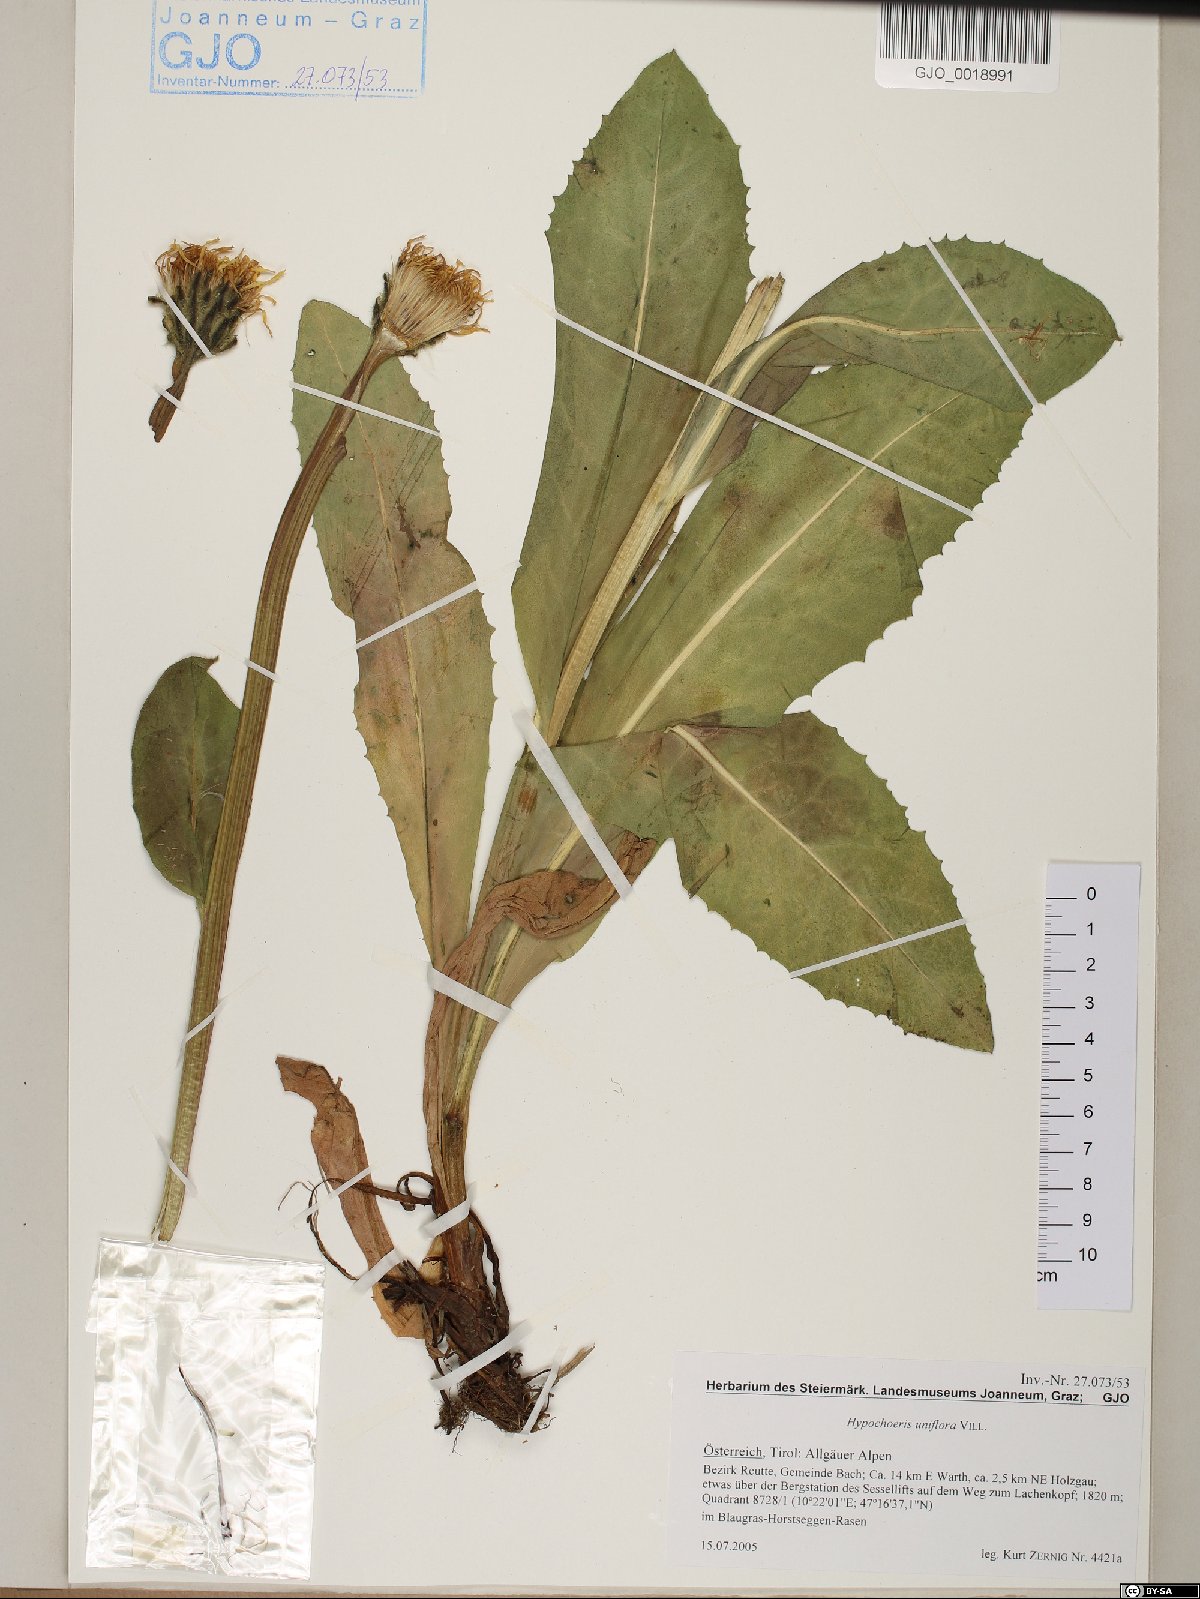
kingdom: Plantae
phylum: Tracheophyta
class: Magnoliopsida
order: Asterales
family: Asteraceae
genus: Trommsdorffia
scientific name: Trommsdorffia uniflora
